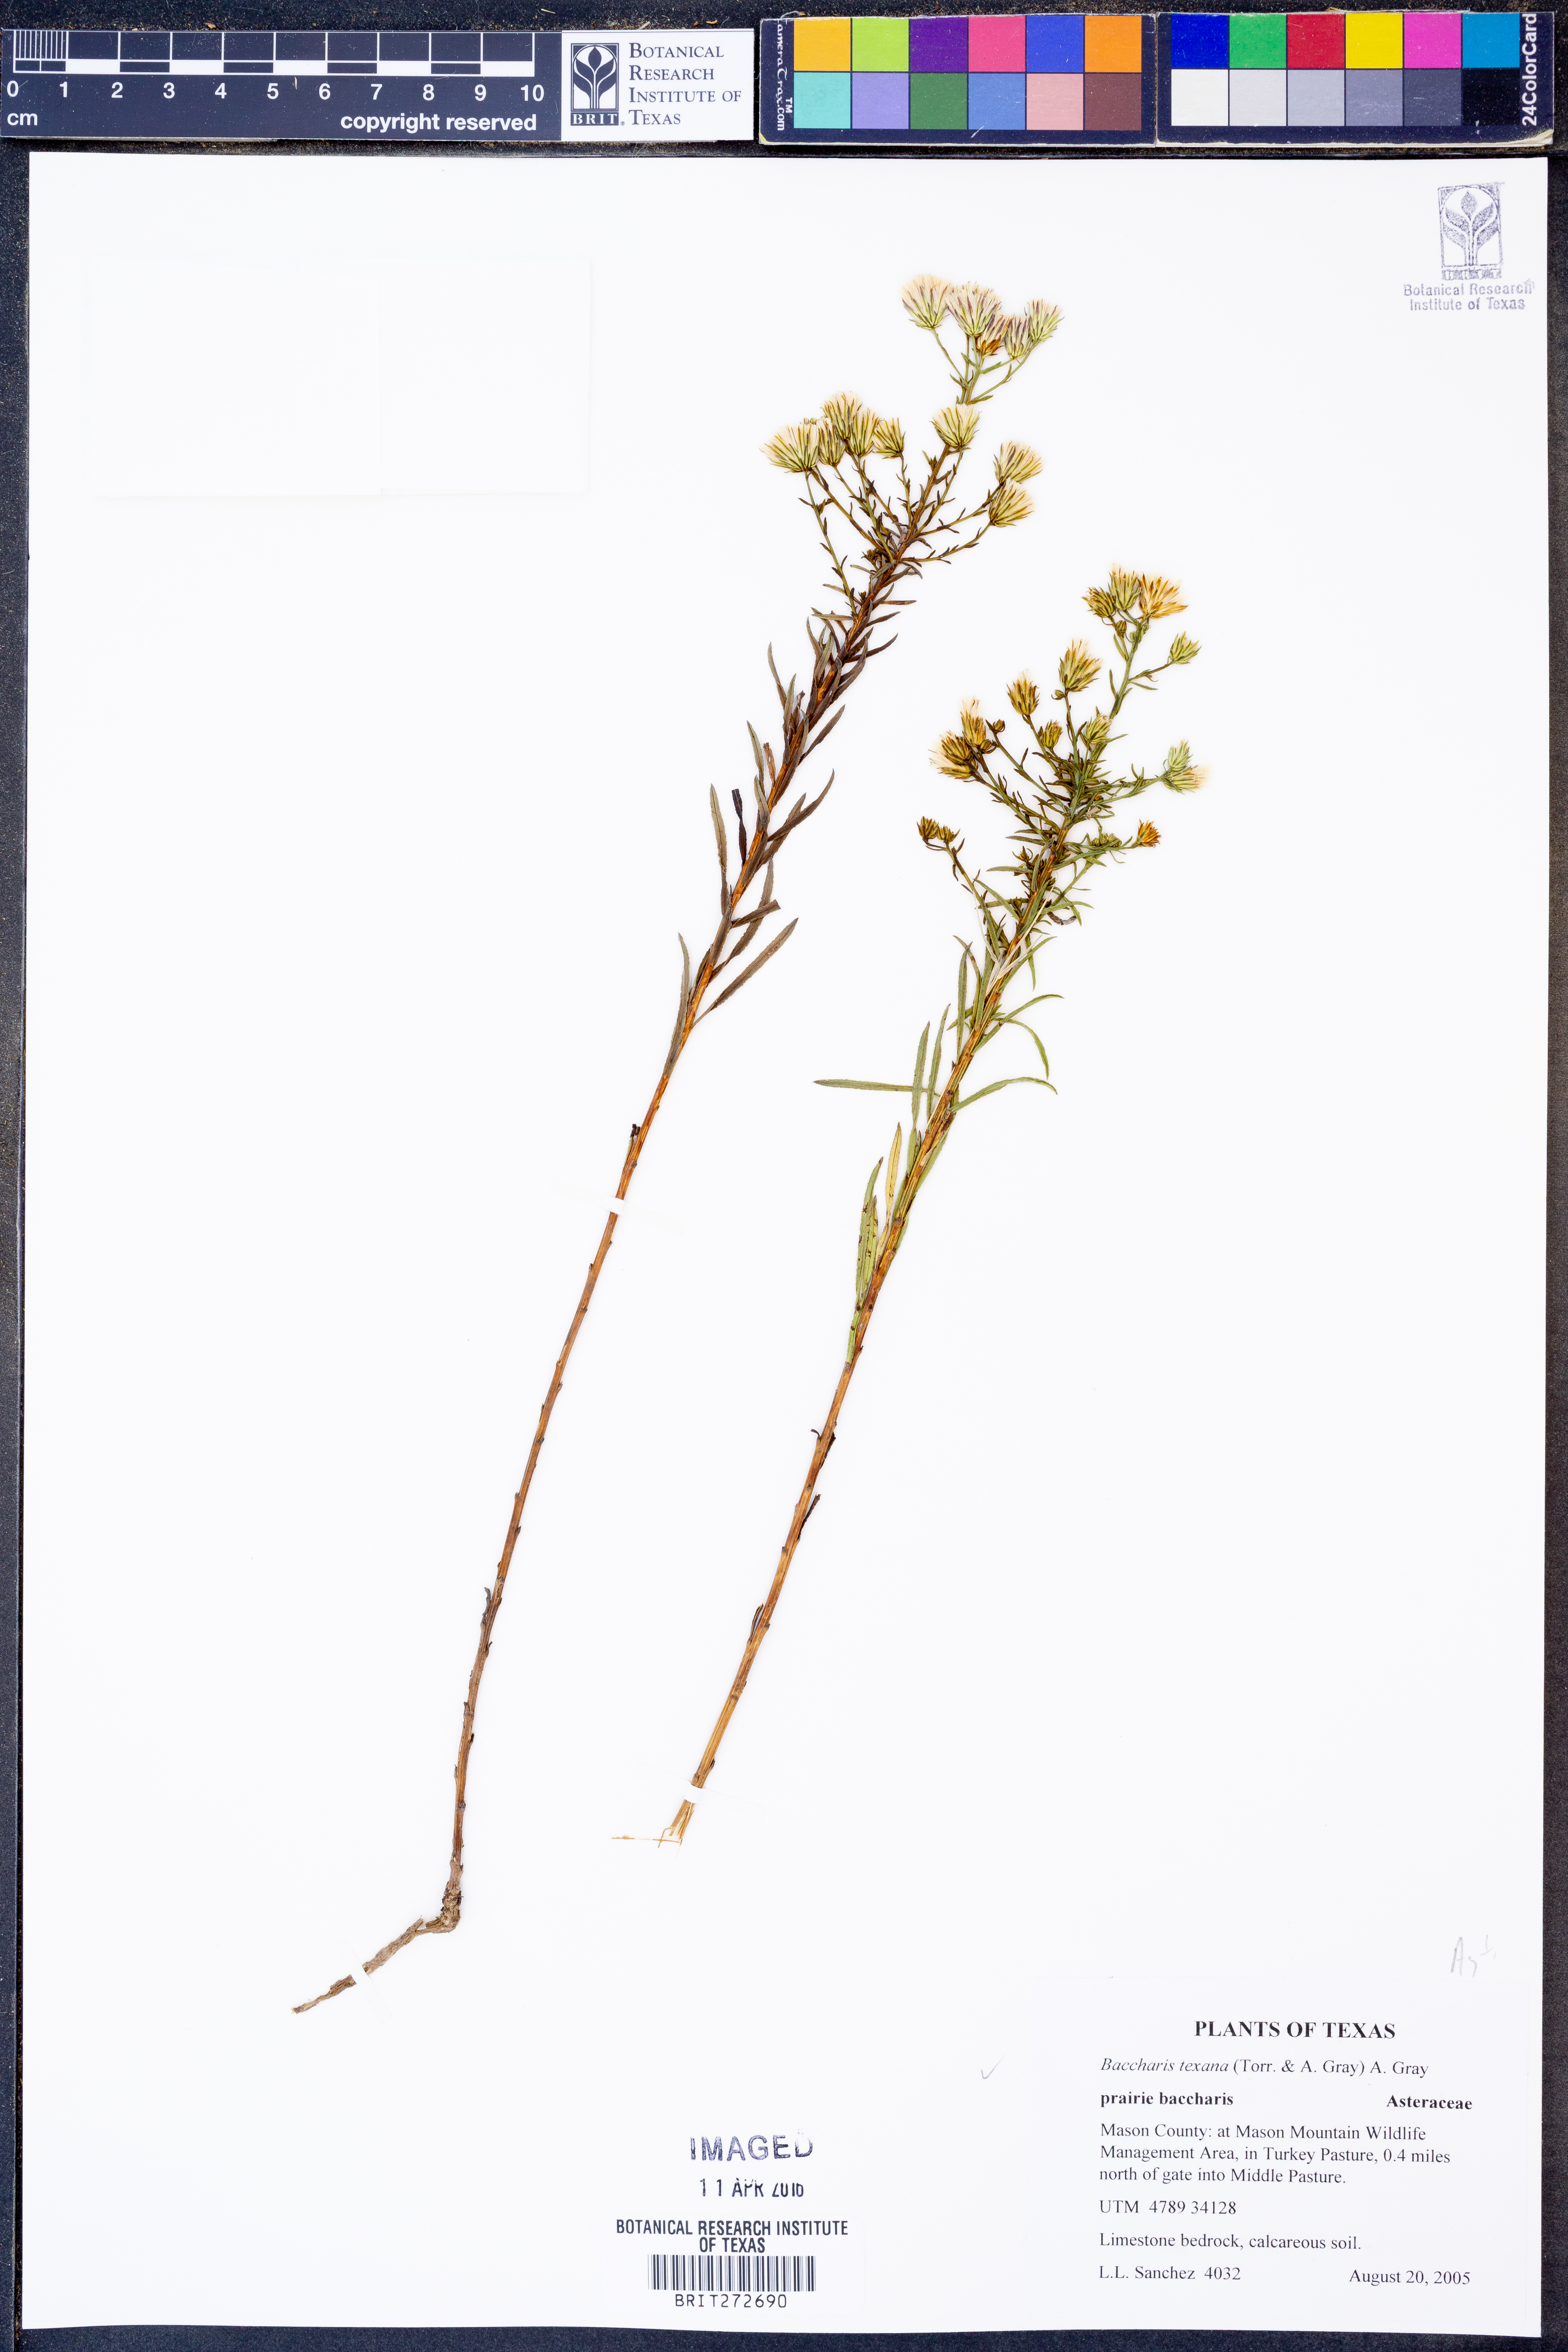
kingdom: Plantae
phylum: Tracheophyta
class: Magnoliopsida
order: Asterales
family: Asteraceae
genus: Baccharis
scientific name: Baccharis texana
